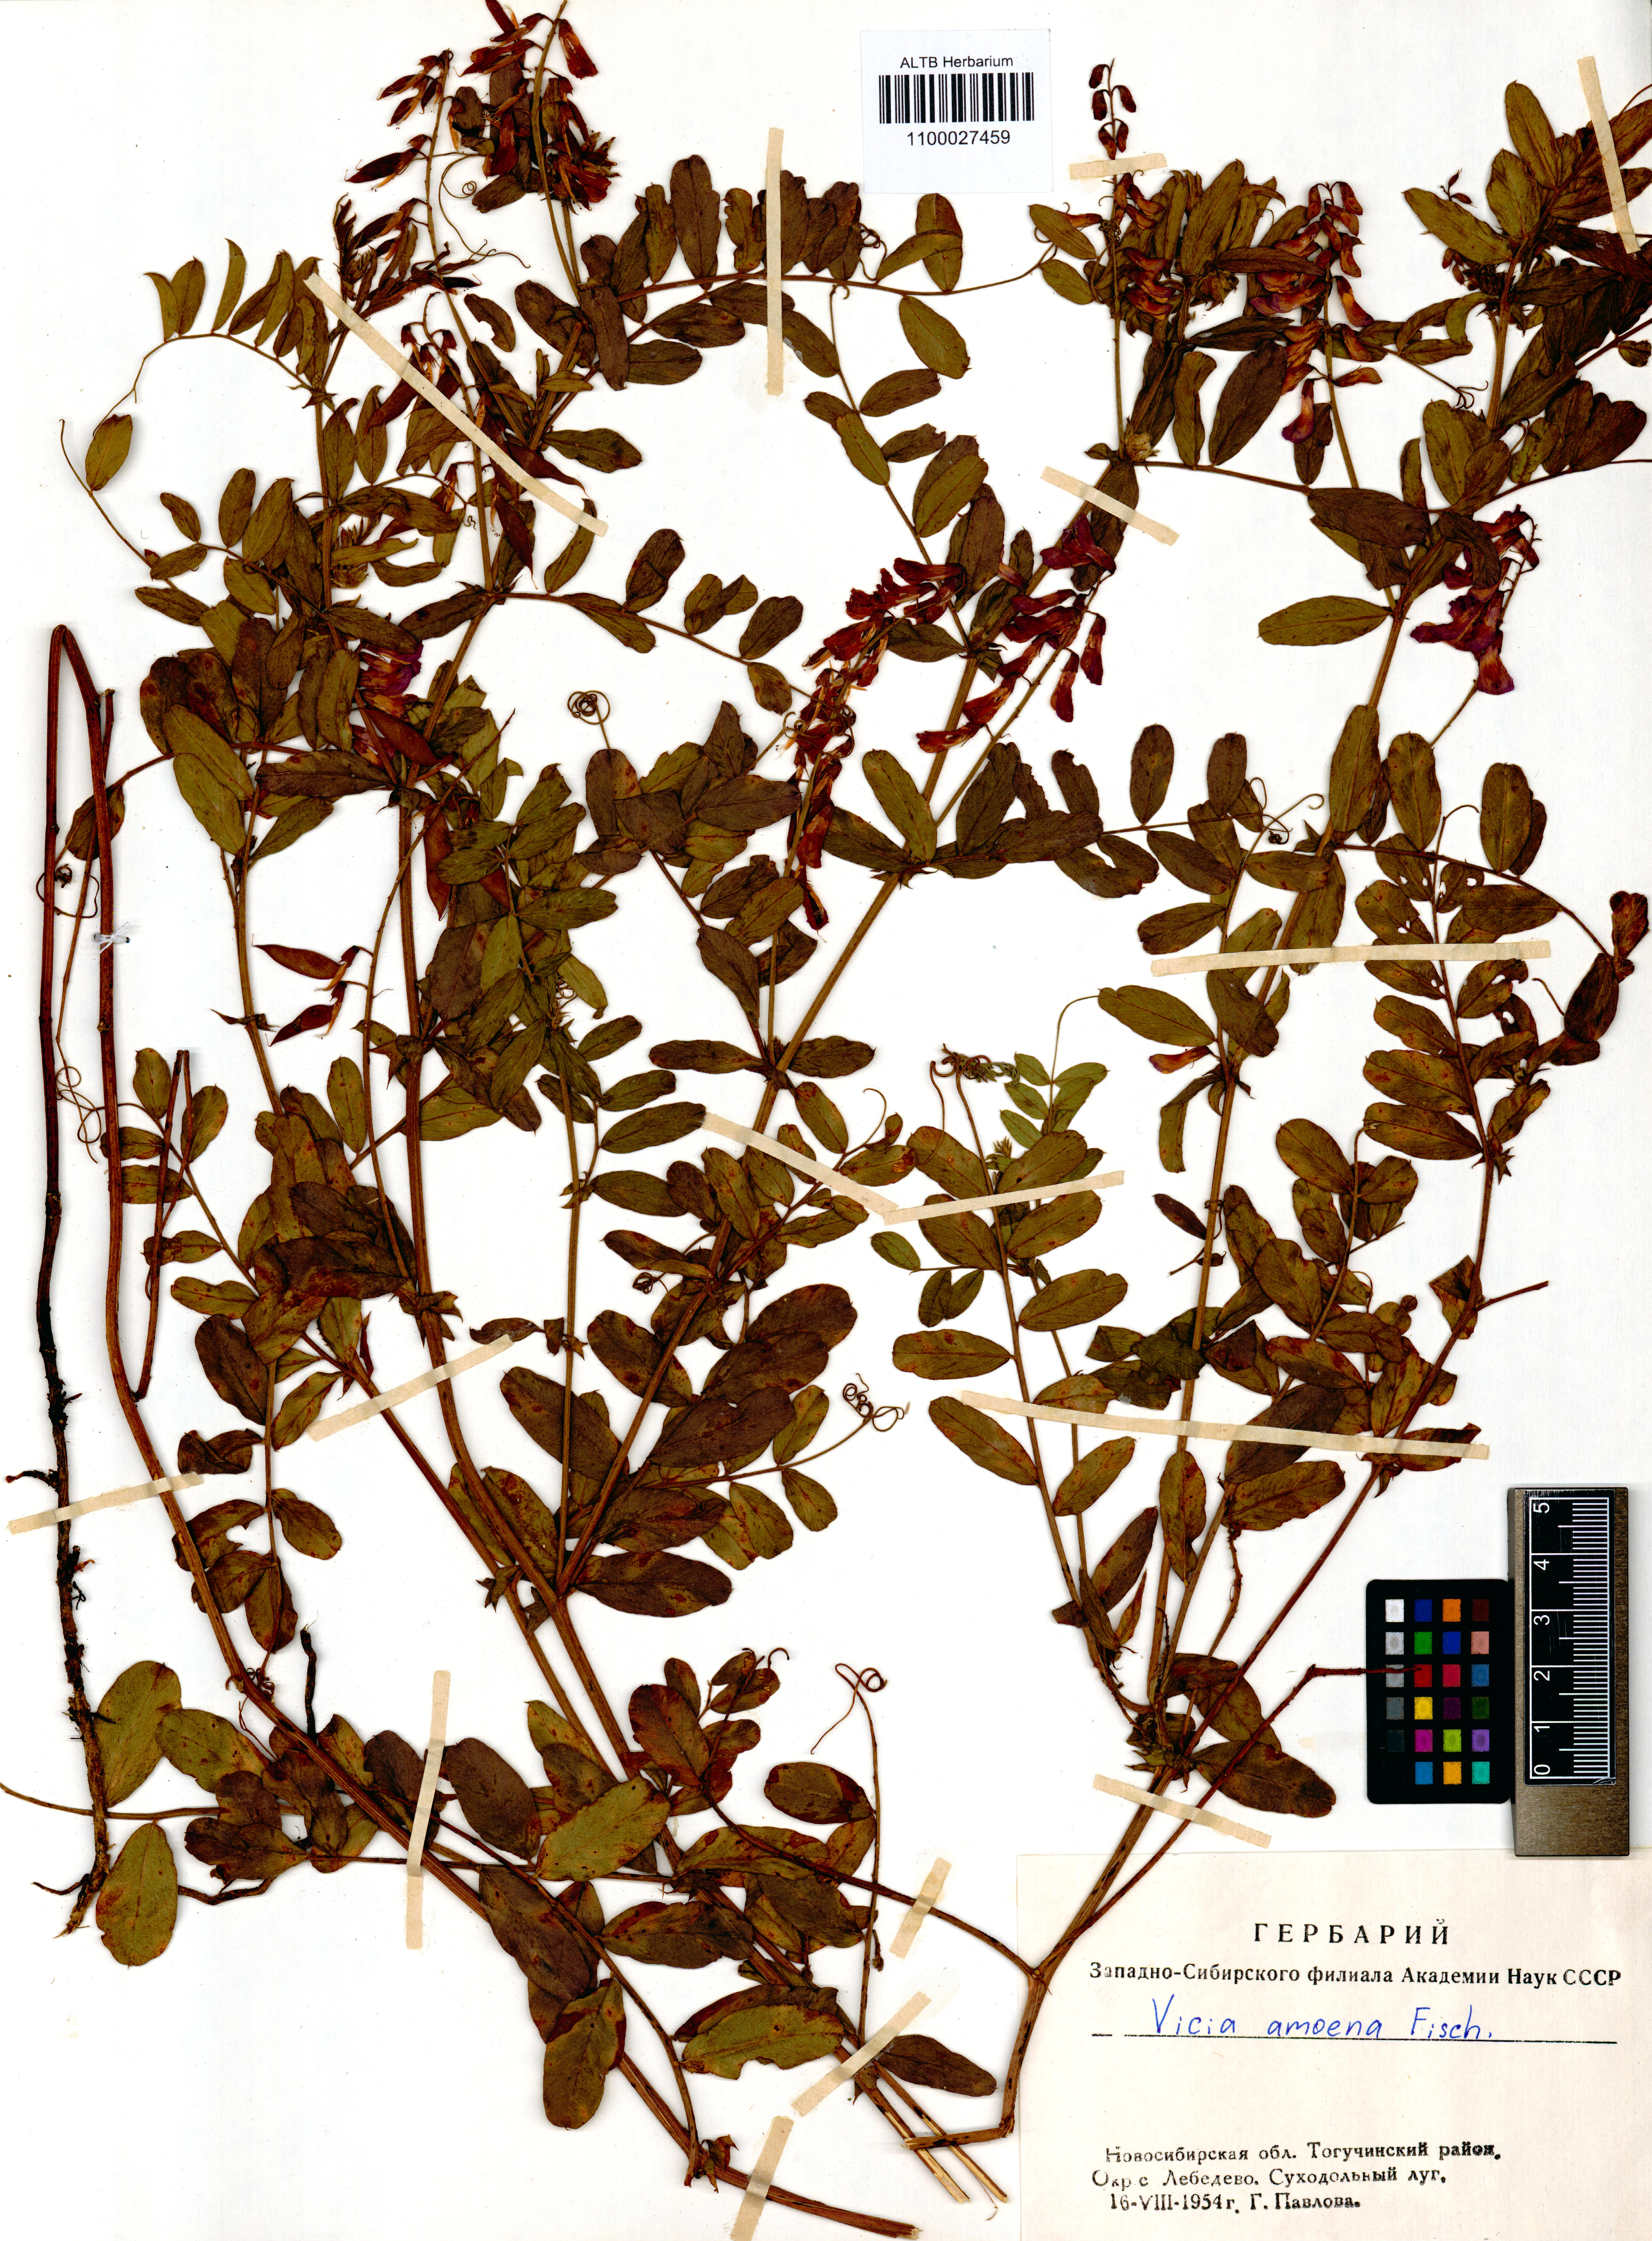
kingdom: Plantae
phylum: Tracheophyta
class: Magnoliopsida
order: Fabales
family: Fabaceae
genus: Vicia
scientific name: Vicia amoena
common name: Cheder ebs
